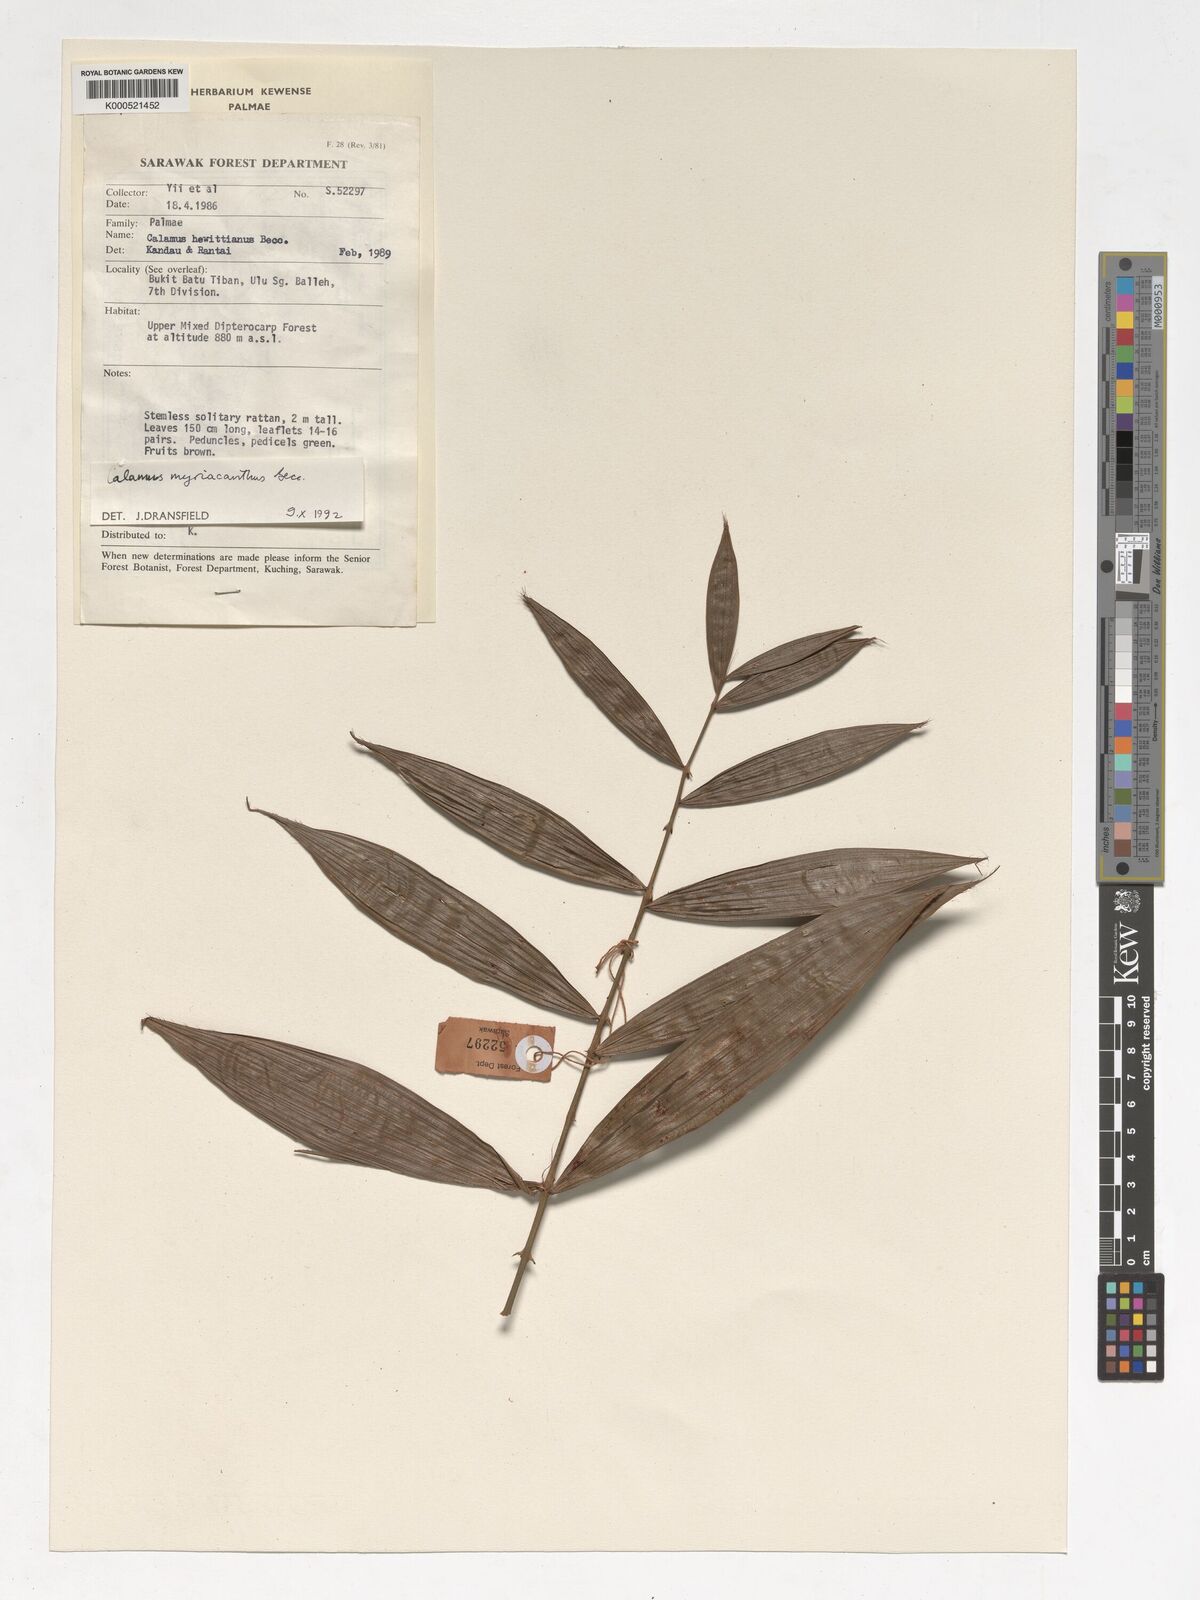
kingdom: Plantae
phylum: Tracheophyta
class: Liliopsida
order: Arecales
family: Arecaceae
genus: Calamus
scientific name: Calamus myriacanthus
